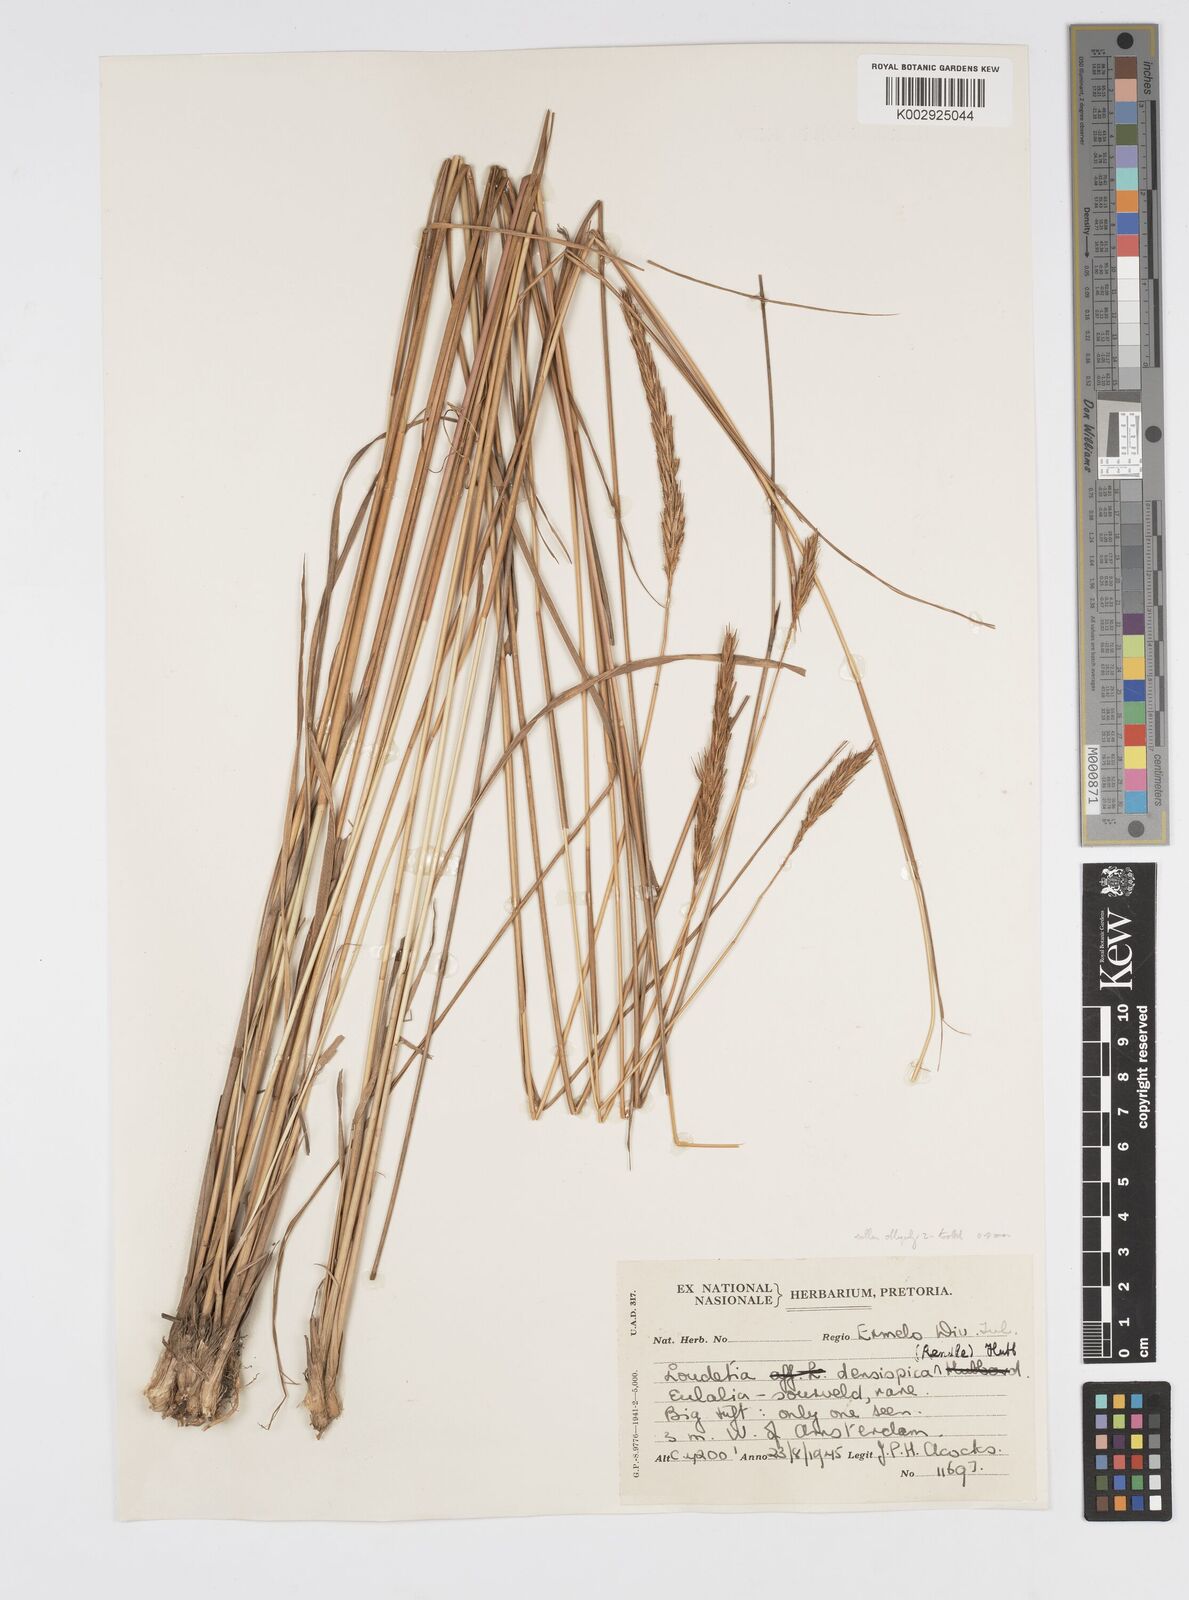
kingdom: Plantae
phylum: Tracheophyta
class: Liliopsida
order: Poales
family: Poaceae
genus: Loudetia
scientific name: Loudetia densispica
